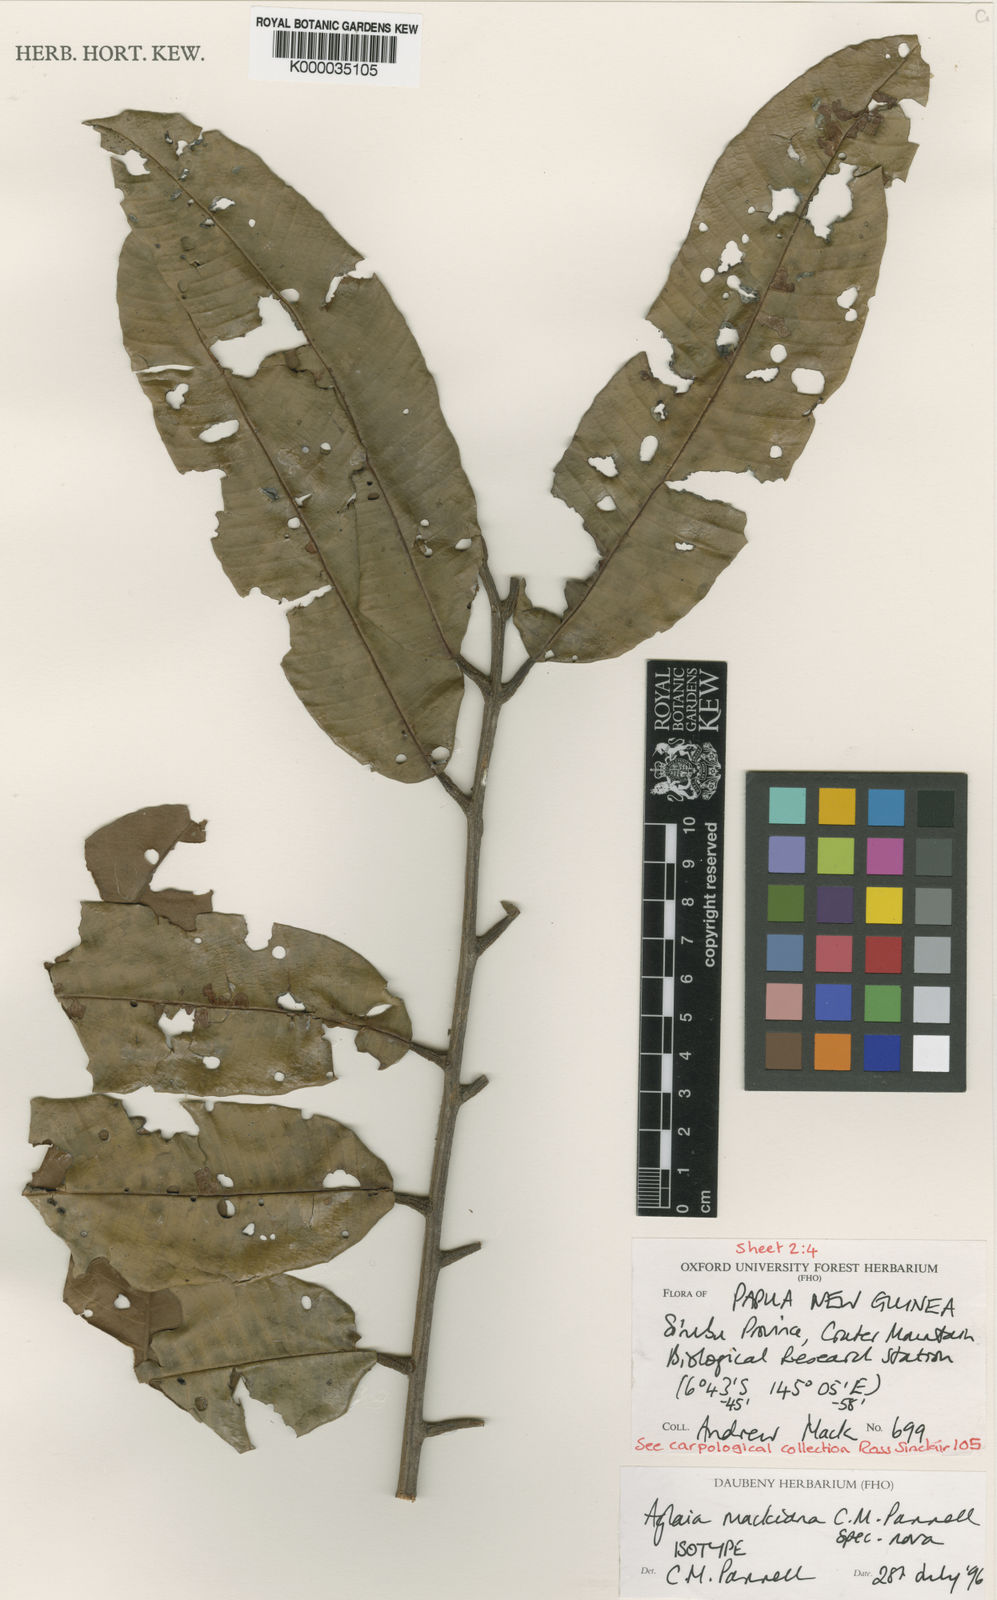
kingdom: Plantae
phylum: Tracheophyta
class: Magnoliopsida
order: Sapindales
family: Meliaceae
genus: Aglaia
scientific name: Aglaia mackiana
